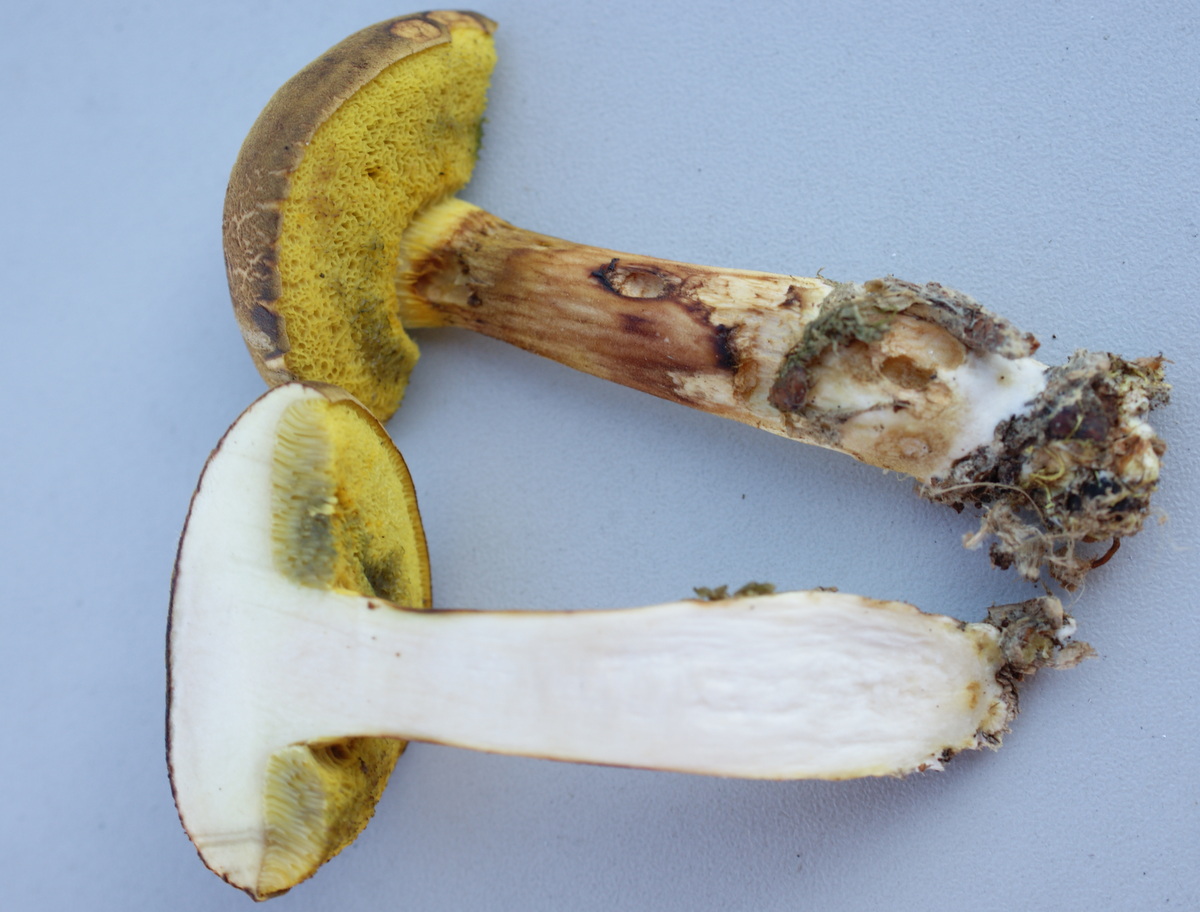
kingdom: Fungi
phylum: Basidiomycota
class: Agaricomycetes
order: Boletales
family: Boletaceae
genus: Xerocomus
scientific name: Xerocomus ferrugineus
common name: vaskeskinds-rørhat
